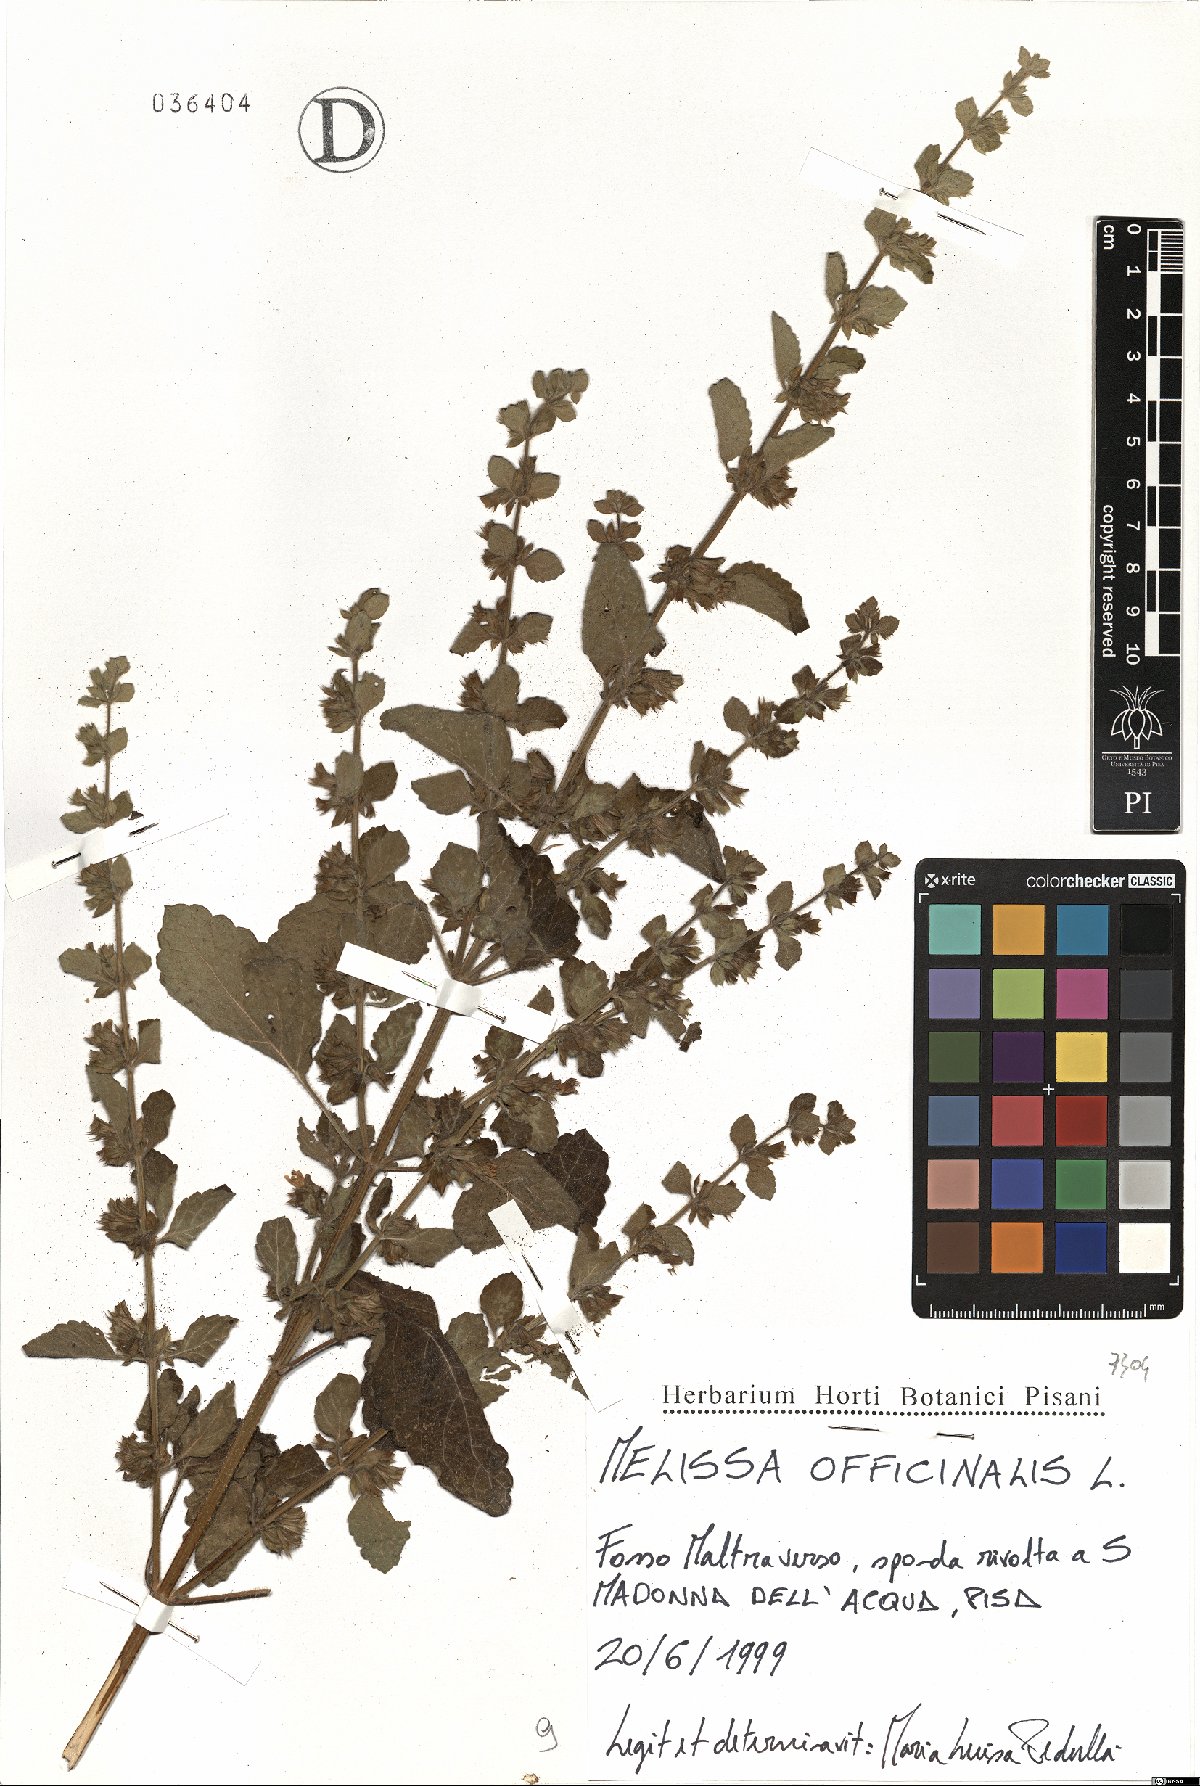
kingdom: Plantae
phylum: Tracheophyta
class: Magnoliopsida
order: Lamiales
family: Lamiaceae
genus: Melissa
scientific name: Melissa officinalis
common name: Balm
